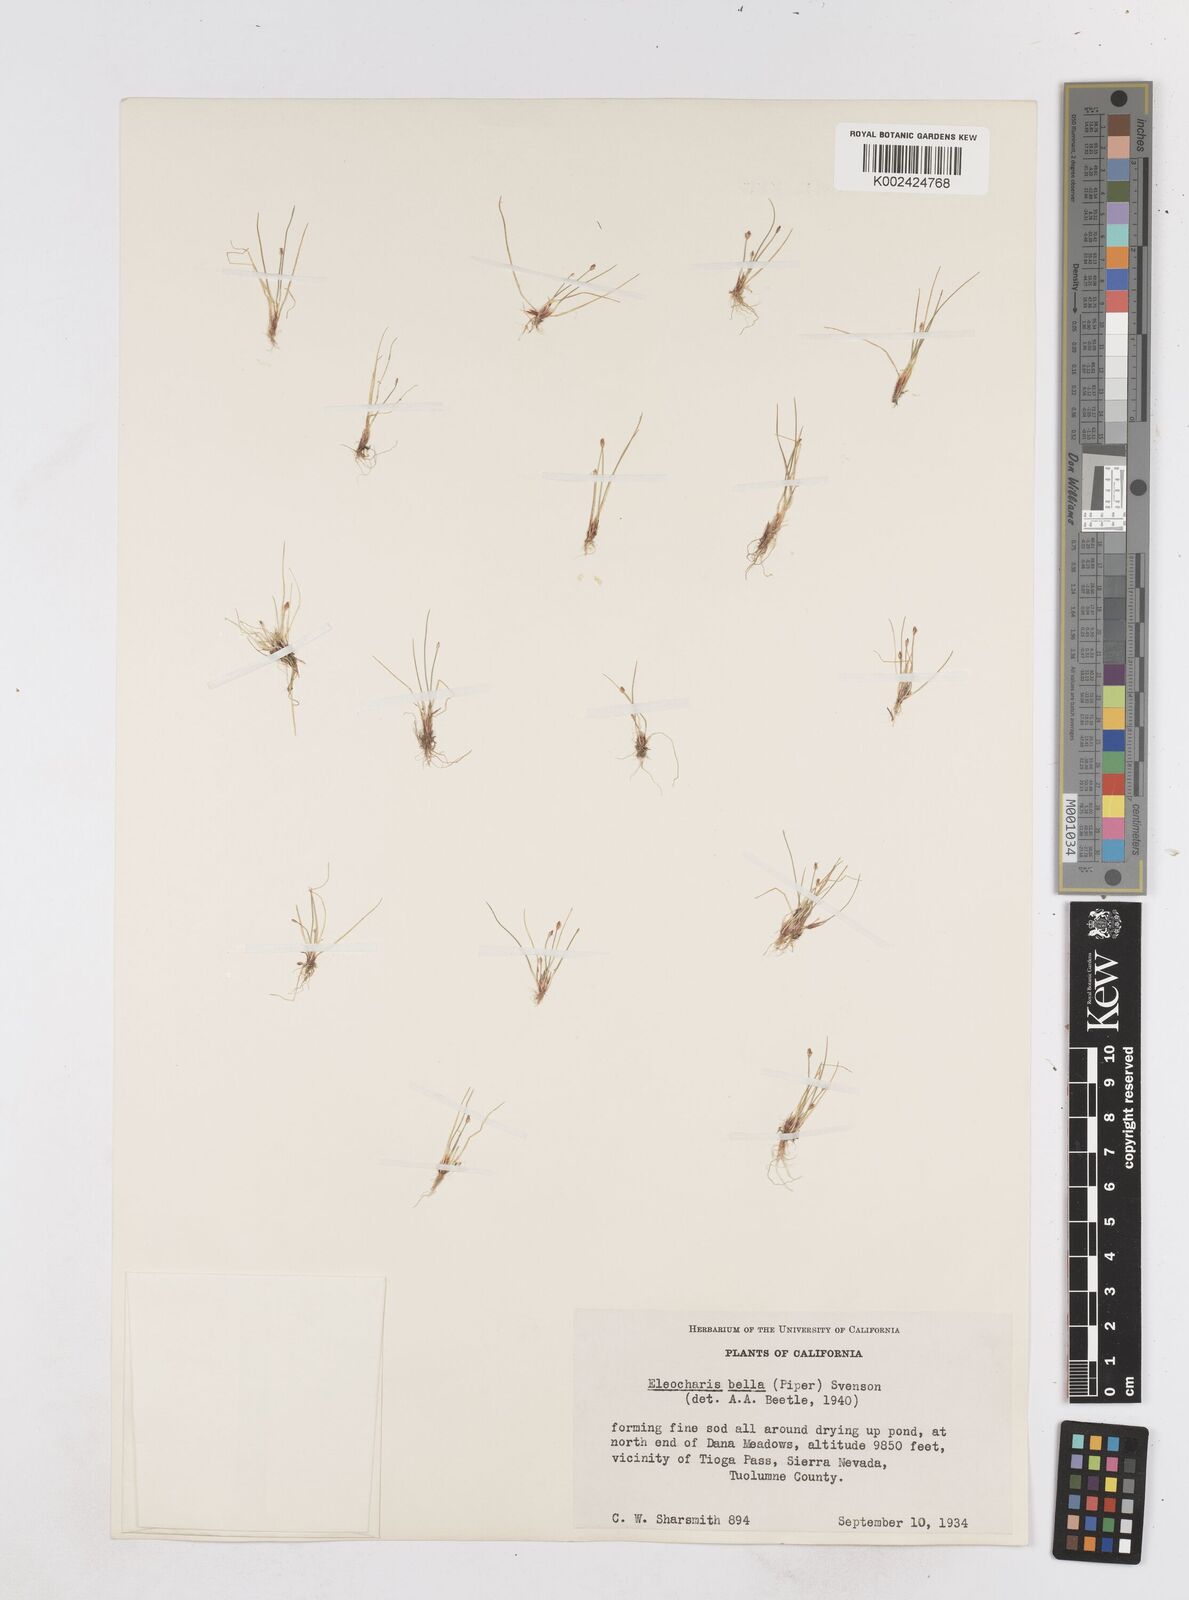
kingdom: Plantae
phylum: Tracheophyta
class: Liliopsida
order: Poales
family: Cyperaceae
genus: Eleocharis
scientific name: Eleocharis bella
